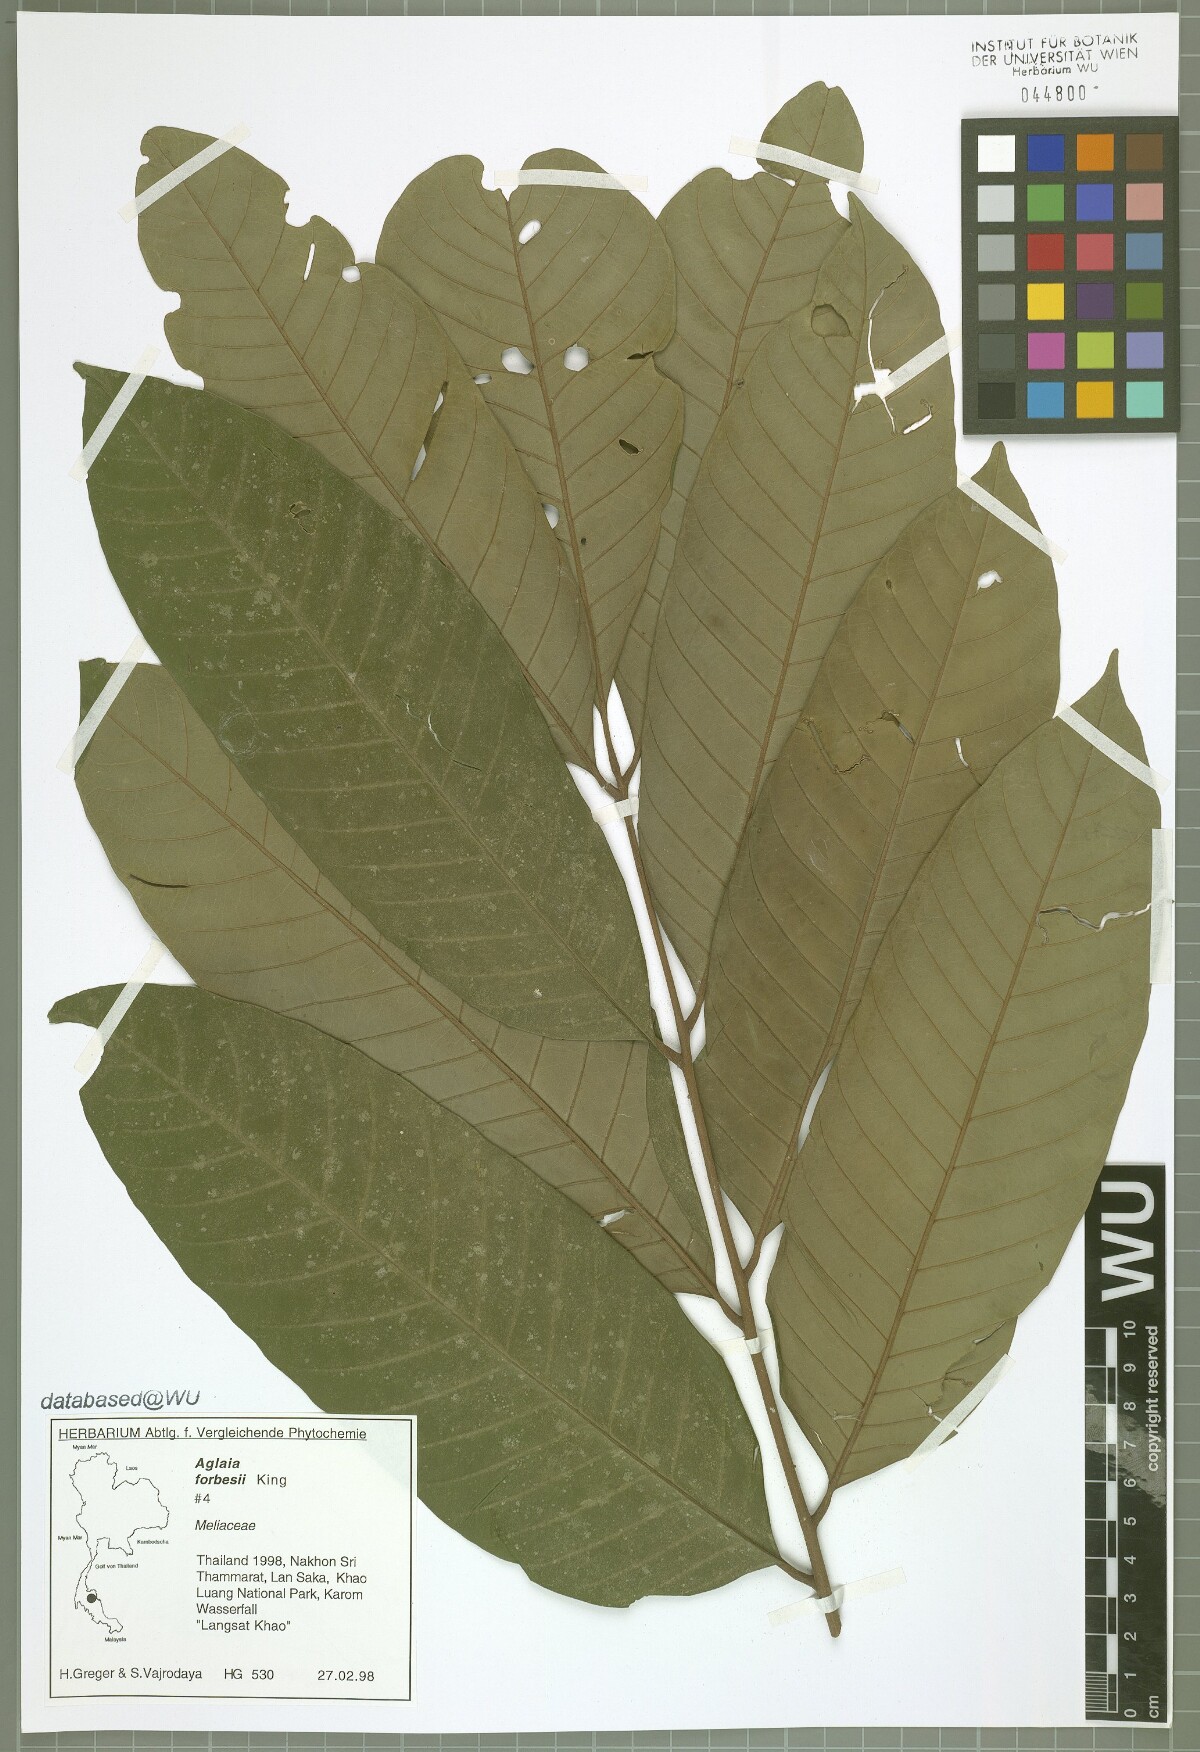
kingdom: Plantae
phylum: Tracheophyta
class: Magnoliopsida
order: Sapindales
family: Meliaceae
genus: Aglaia
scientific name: Aglaia forbesii
